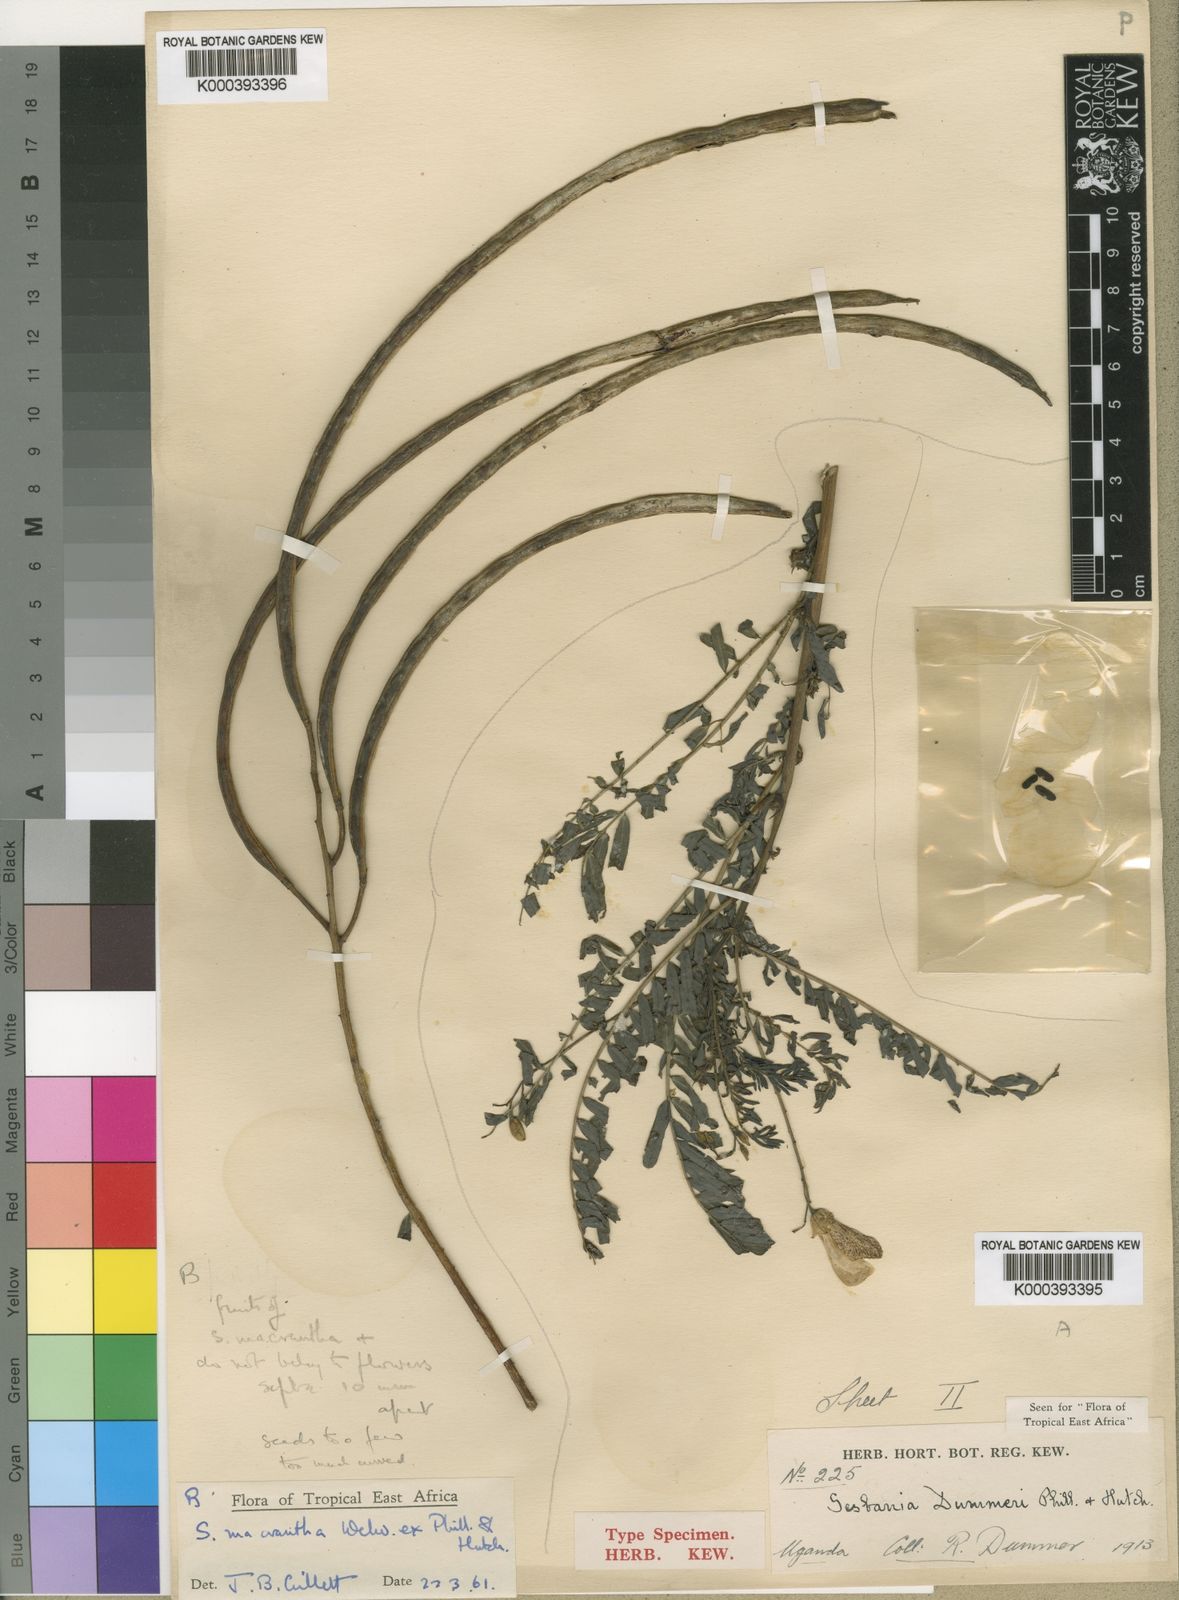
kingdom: Plantae
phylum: Tracheophyta
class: Magnoliopsida
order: Fabales
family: Fabaceae
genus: Sesbania
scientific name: Sesbania dummeri
